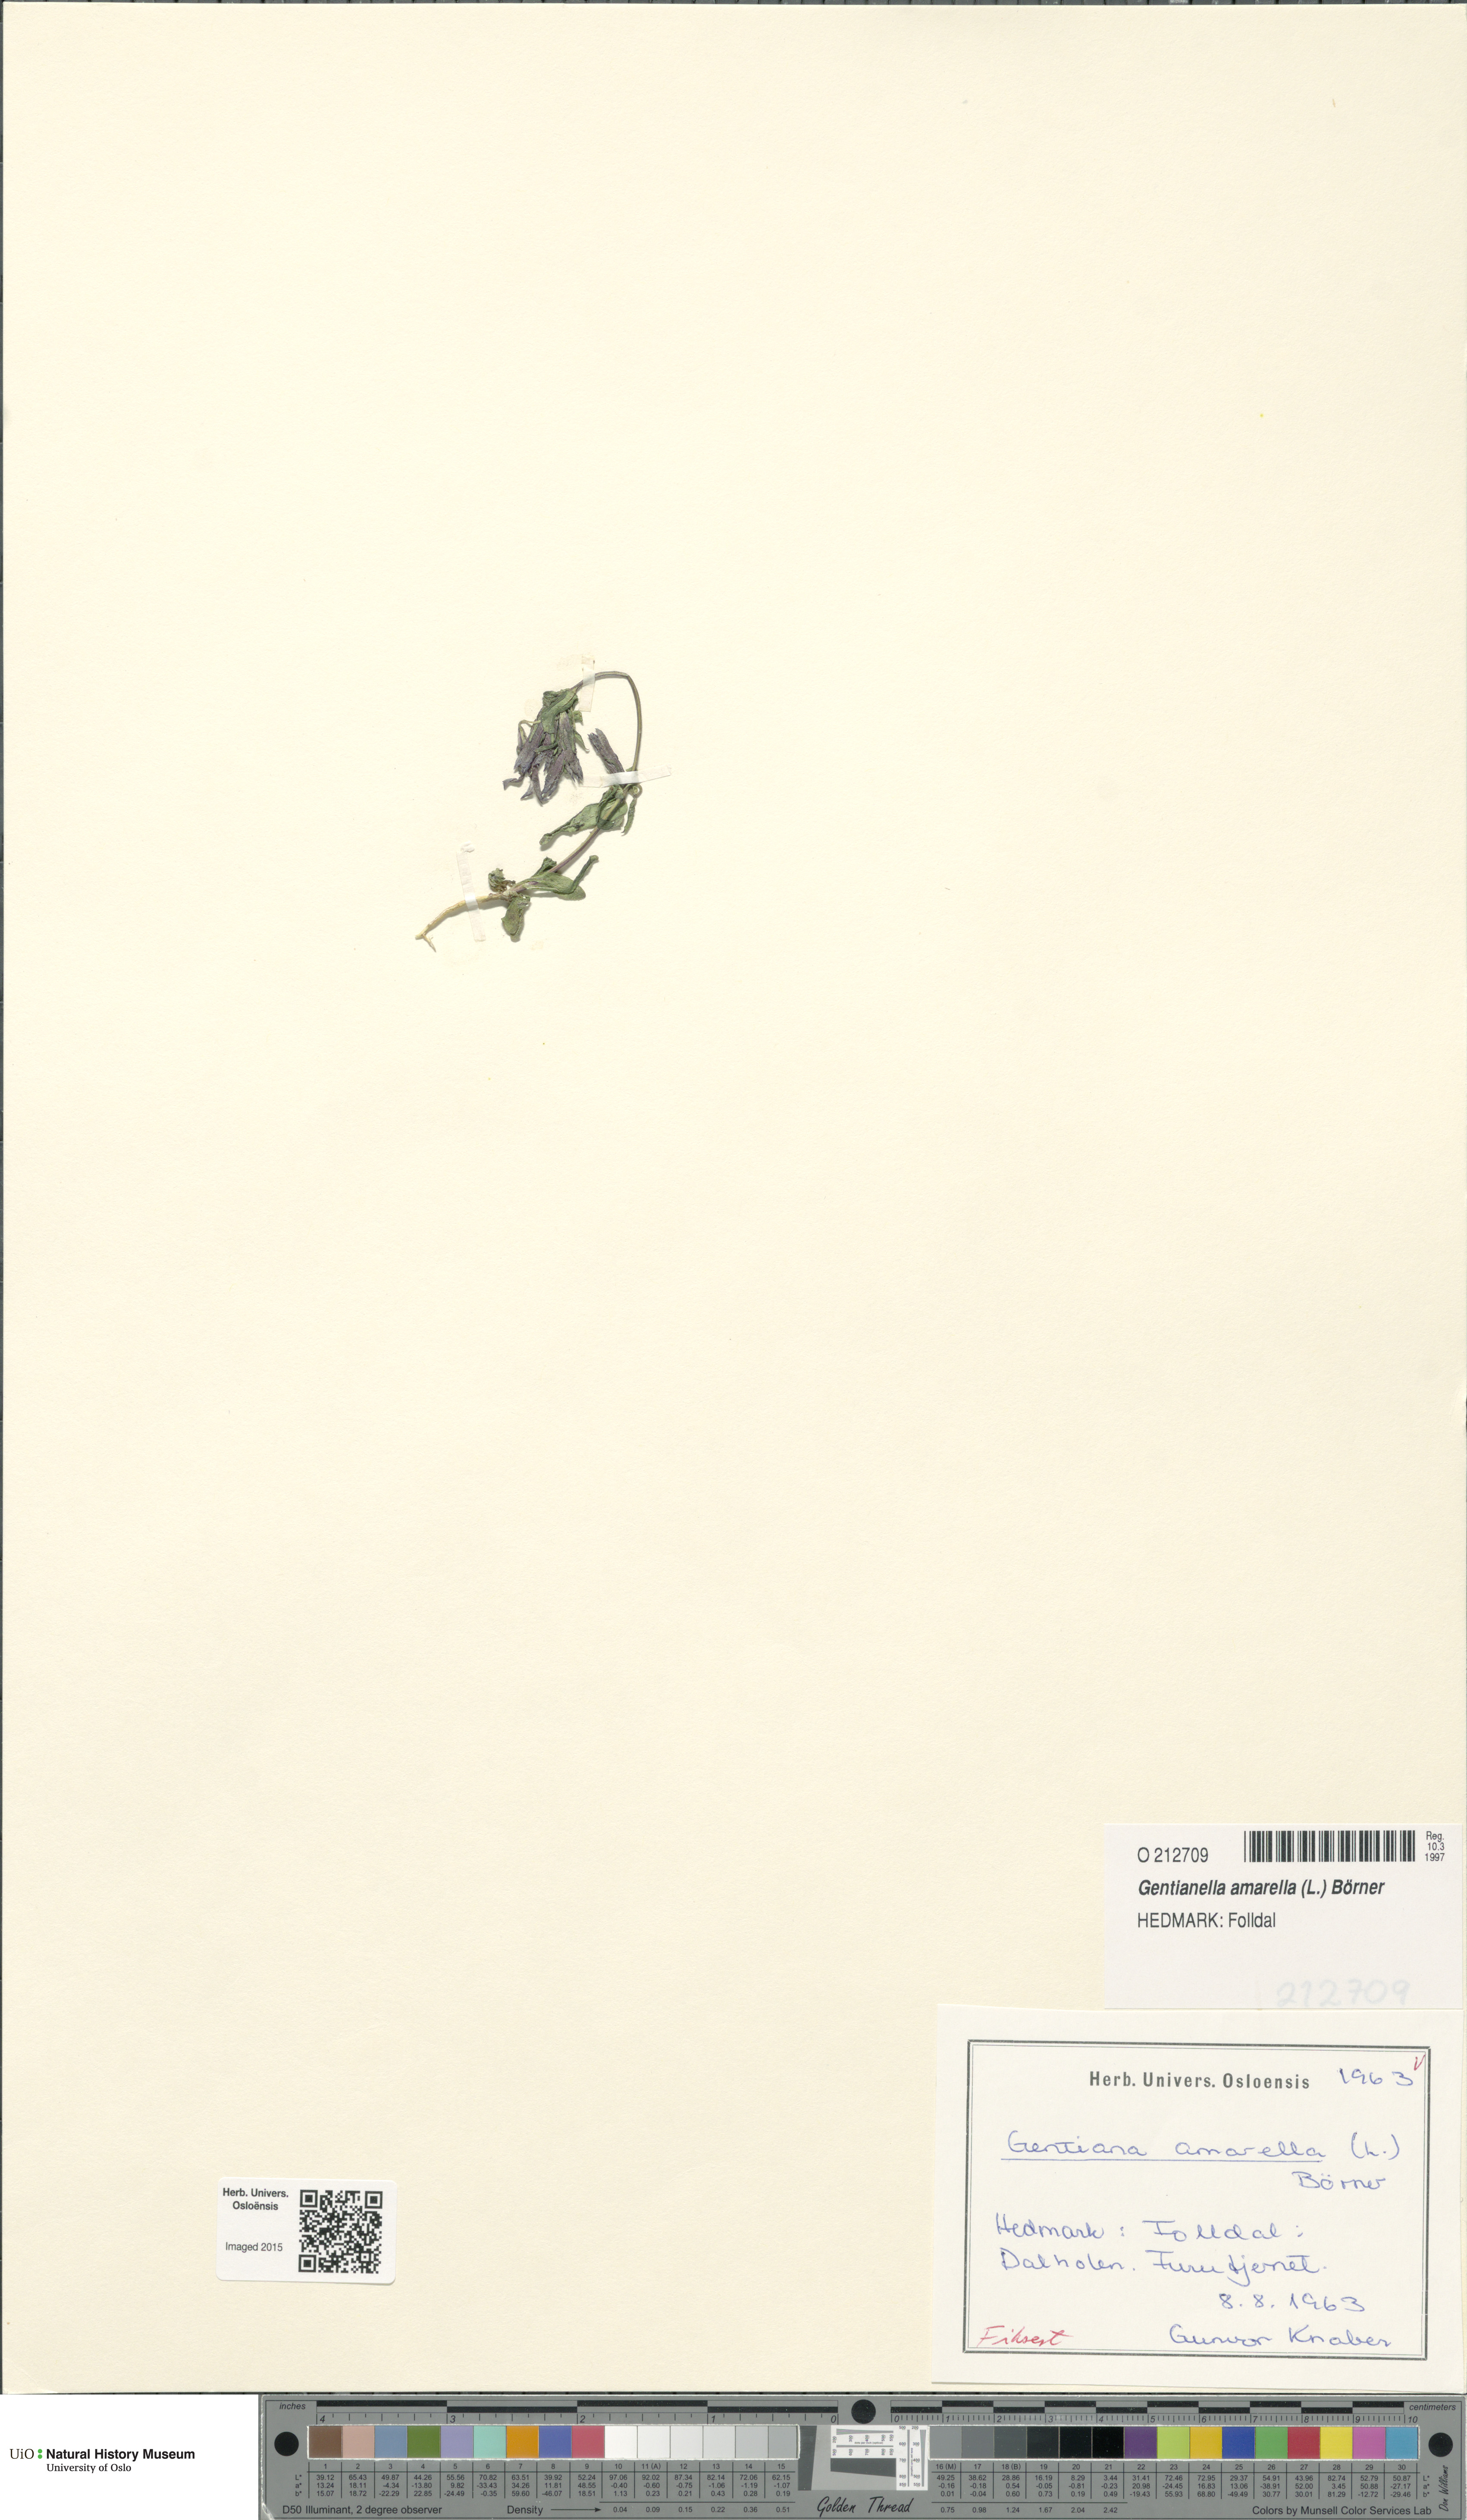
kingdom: Plantae
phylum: Tracheophyta
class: Magnoliopsida
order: Gentianales
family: Gentianaceae
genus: Gentianella
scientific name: Gentianella amarella
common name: Autumn gentian
